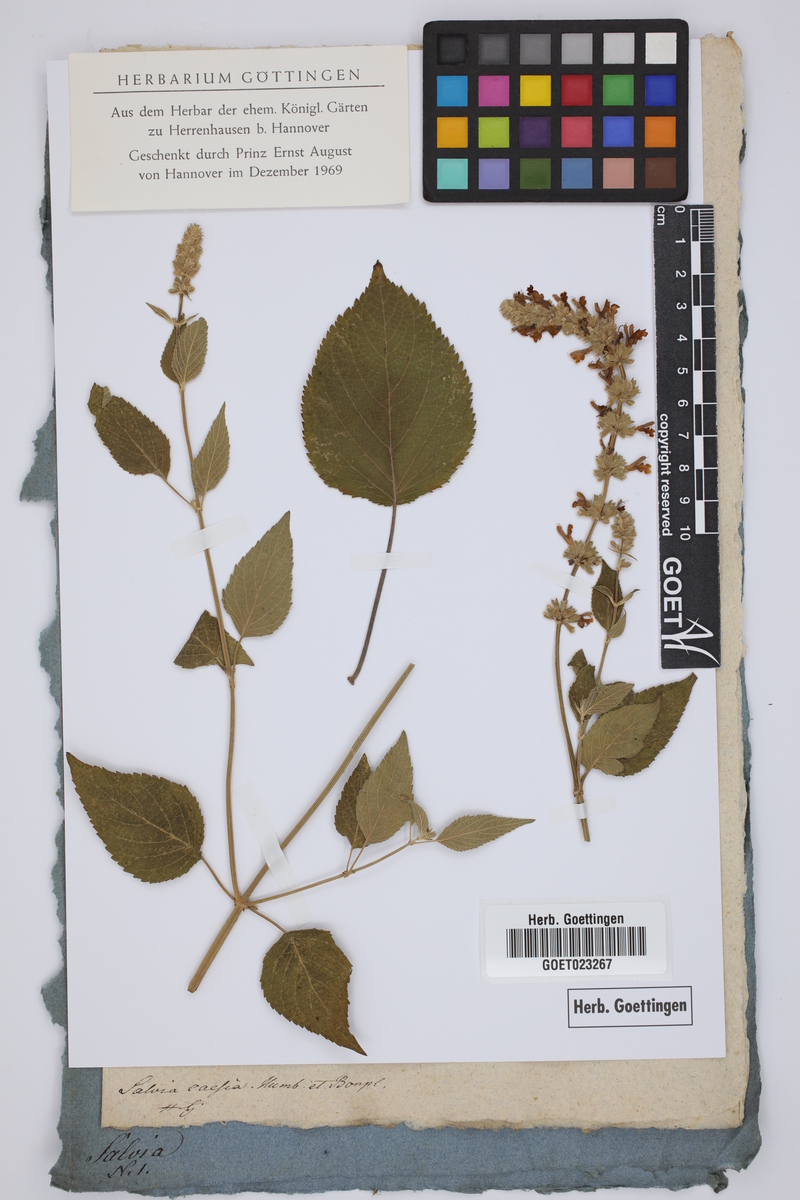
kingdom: Plantae
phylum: Tracheophyta
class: Magnoliopsida
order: Lamiales
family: Lamiaceae
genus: Salvia
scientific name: Salvia polystachia
